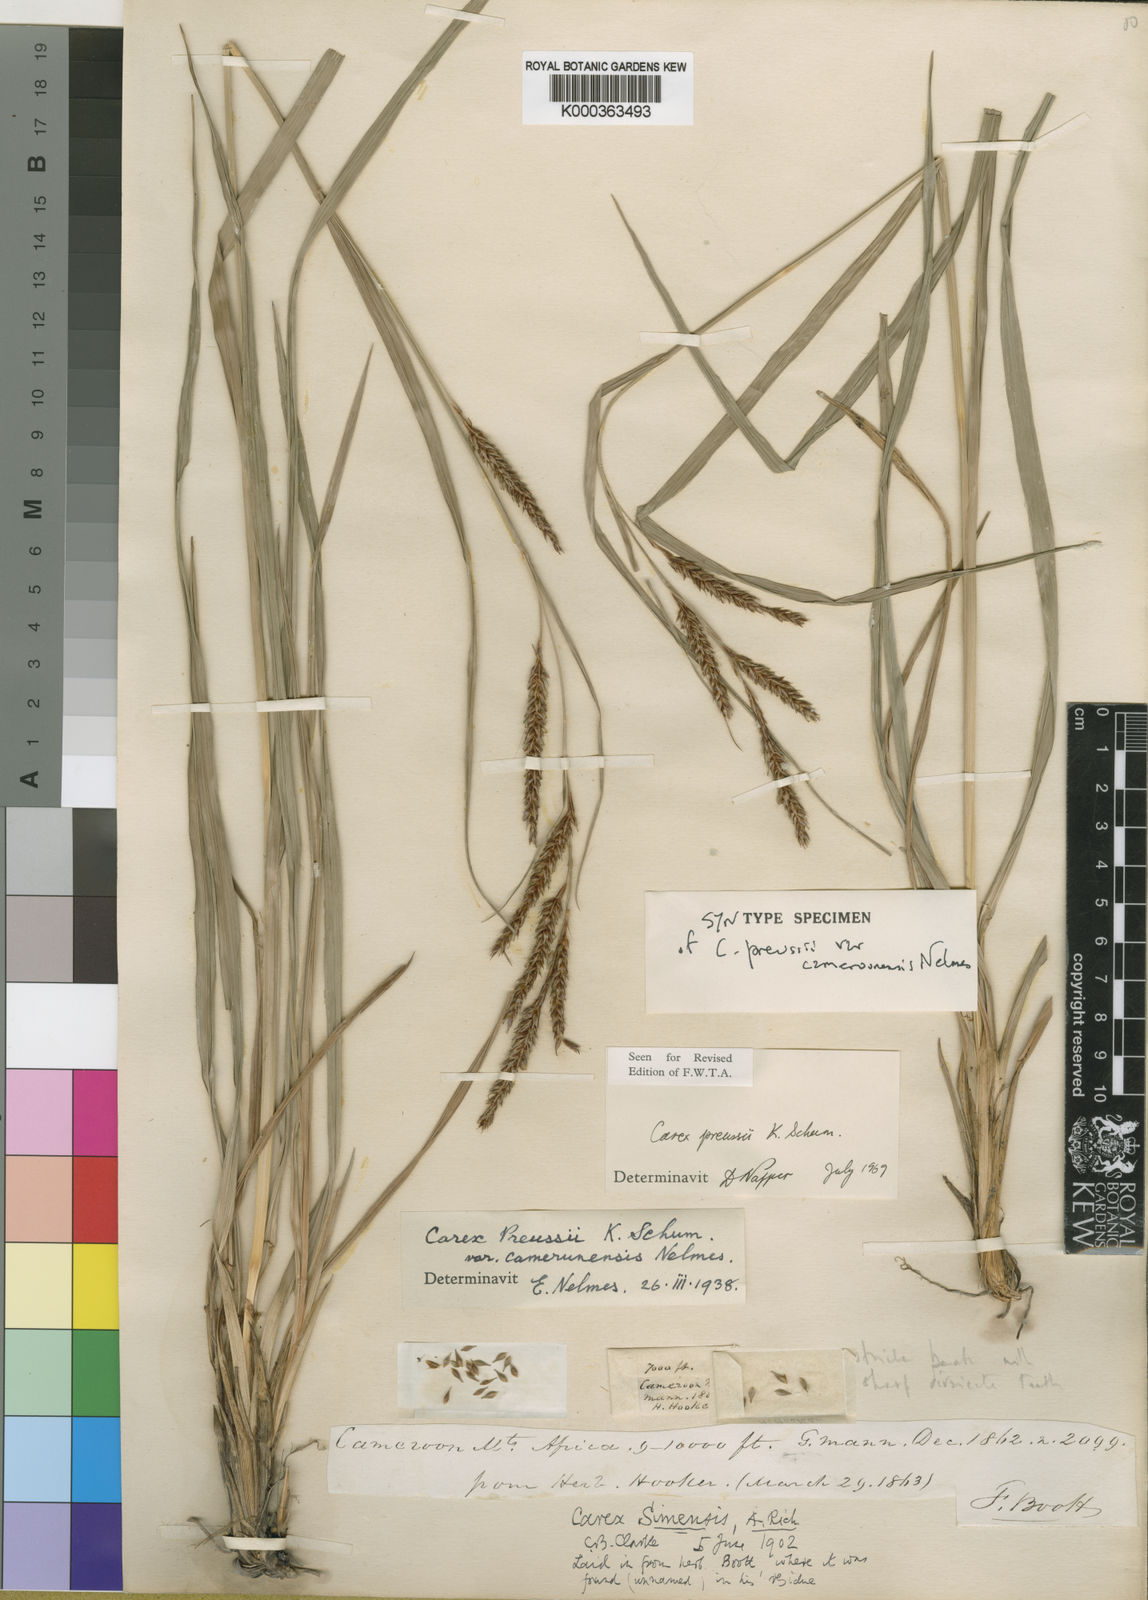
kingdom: Plantae
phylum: Tracheophyta
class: Liliopsida
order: Poales
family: Cyperaceae
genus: Carex
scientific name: Carex petitiana
